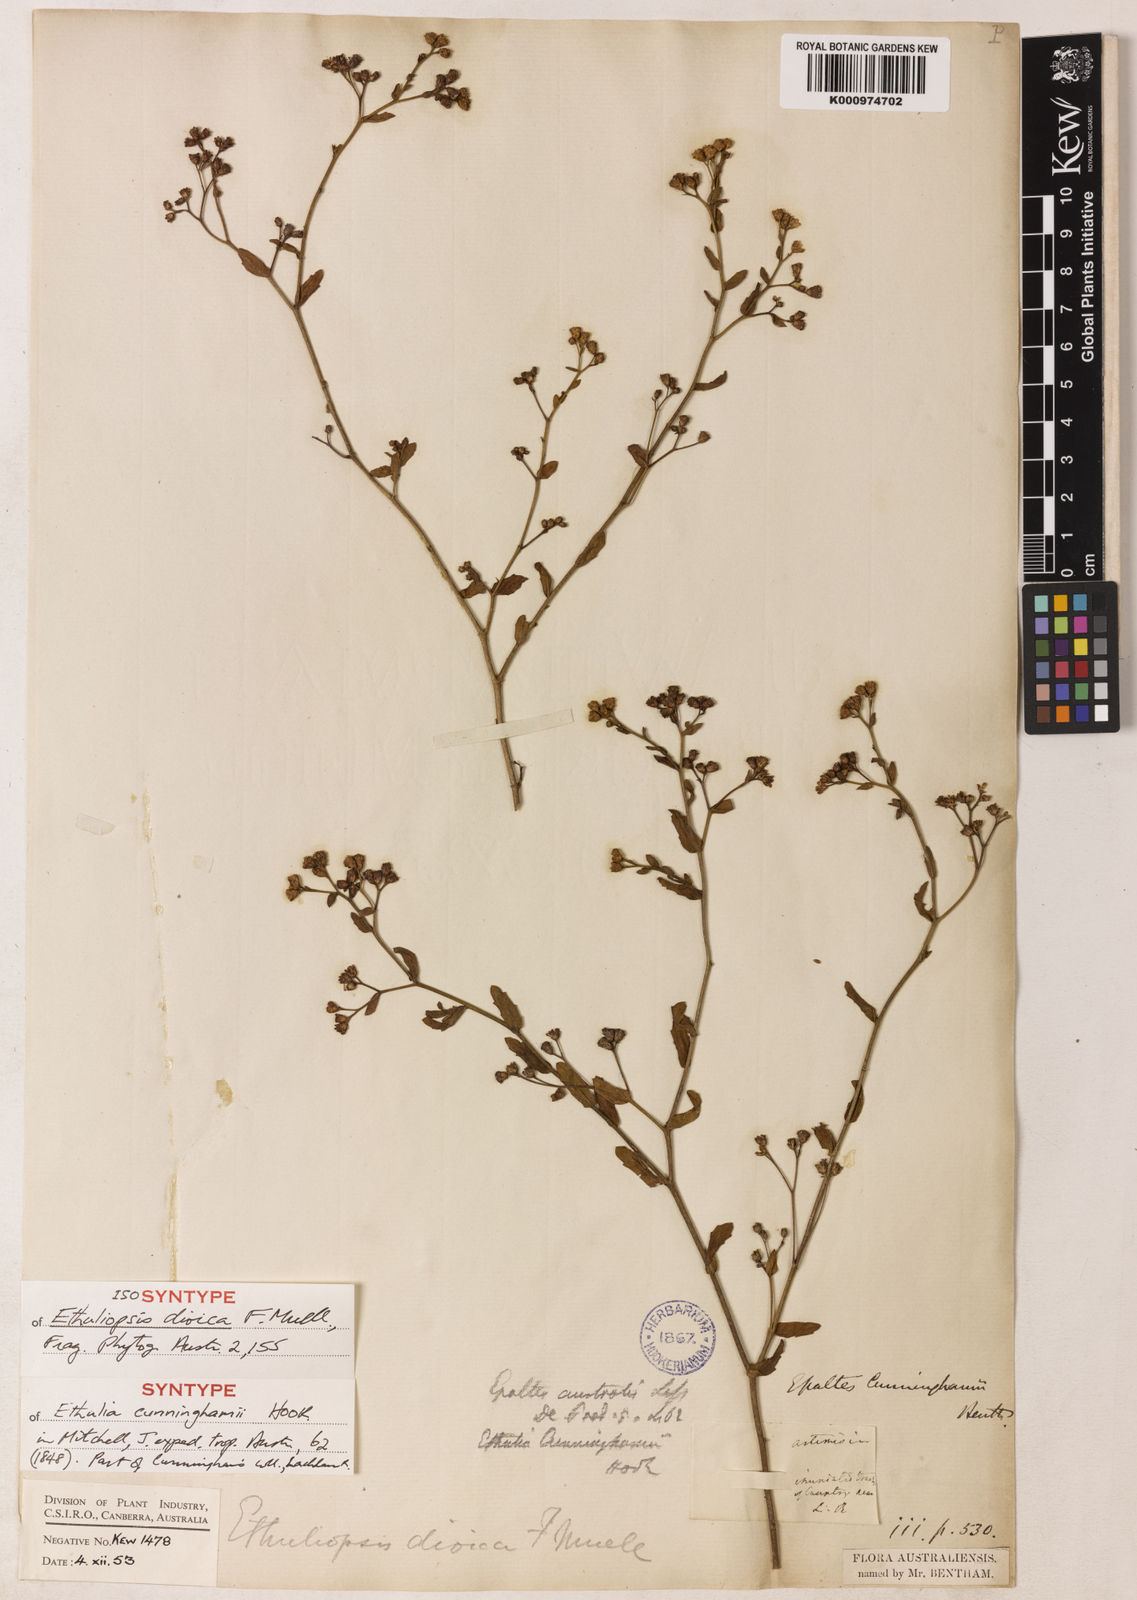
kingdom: Plantae
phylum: Tracheophyta
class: Magnoliopsida
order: Asterales
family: Asteraceae
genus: Epaltes
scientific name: Epaltes cunninghamii
